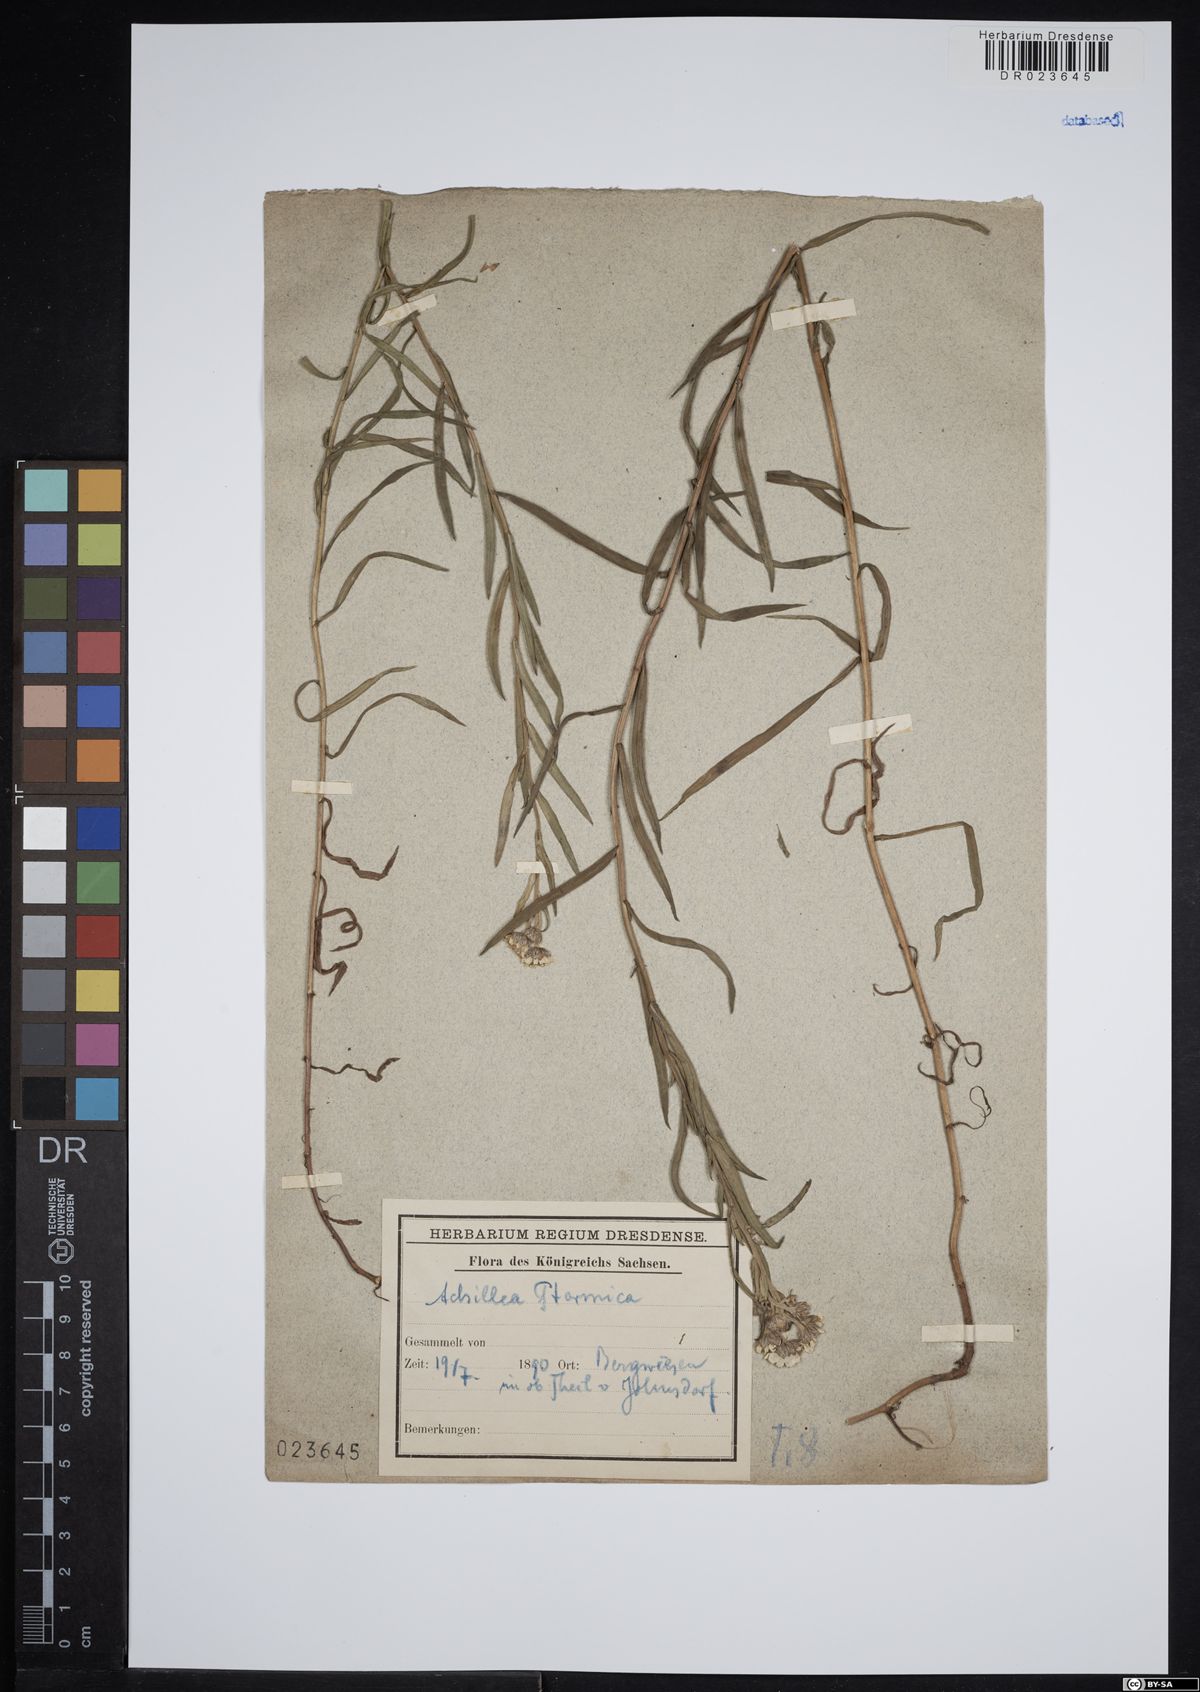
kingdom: Plantae
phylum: Tracheophyta
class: Magnoliopsida
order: Asterales
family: Asteraceae
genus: Achillea
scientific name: Achillea ptarmica
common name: Sneezeweed
